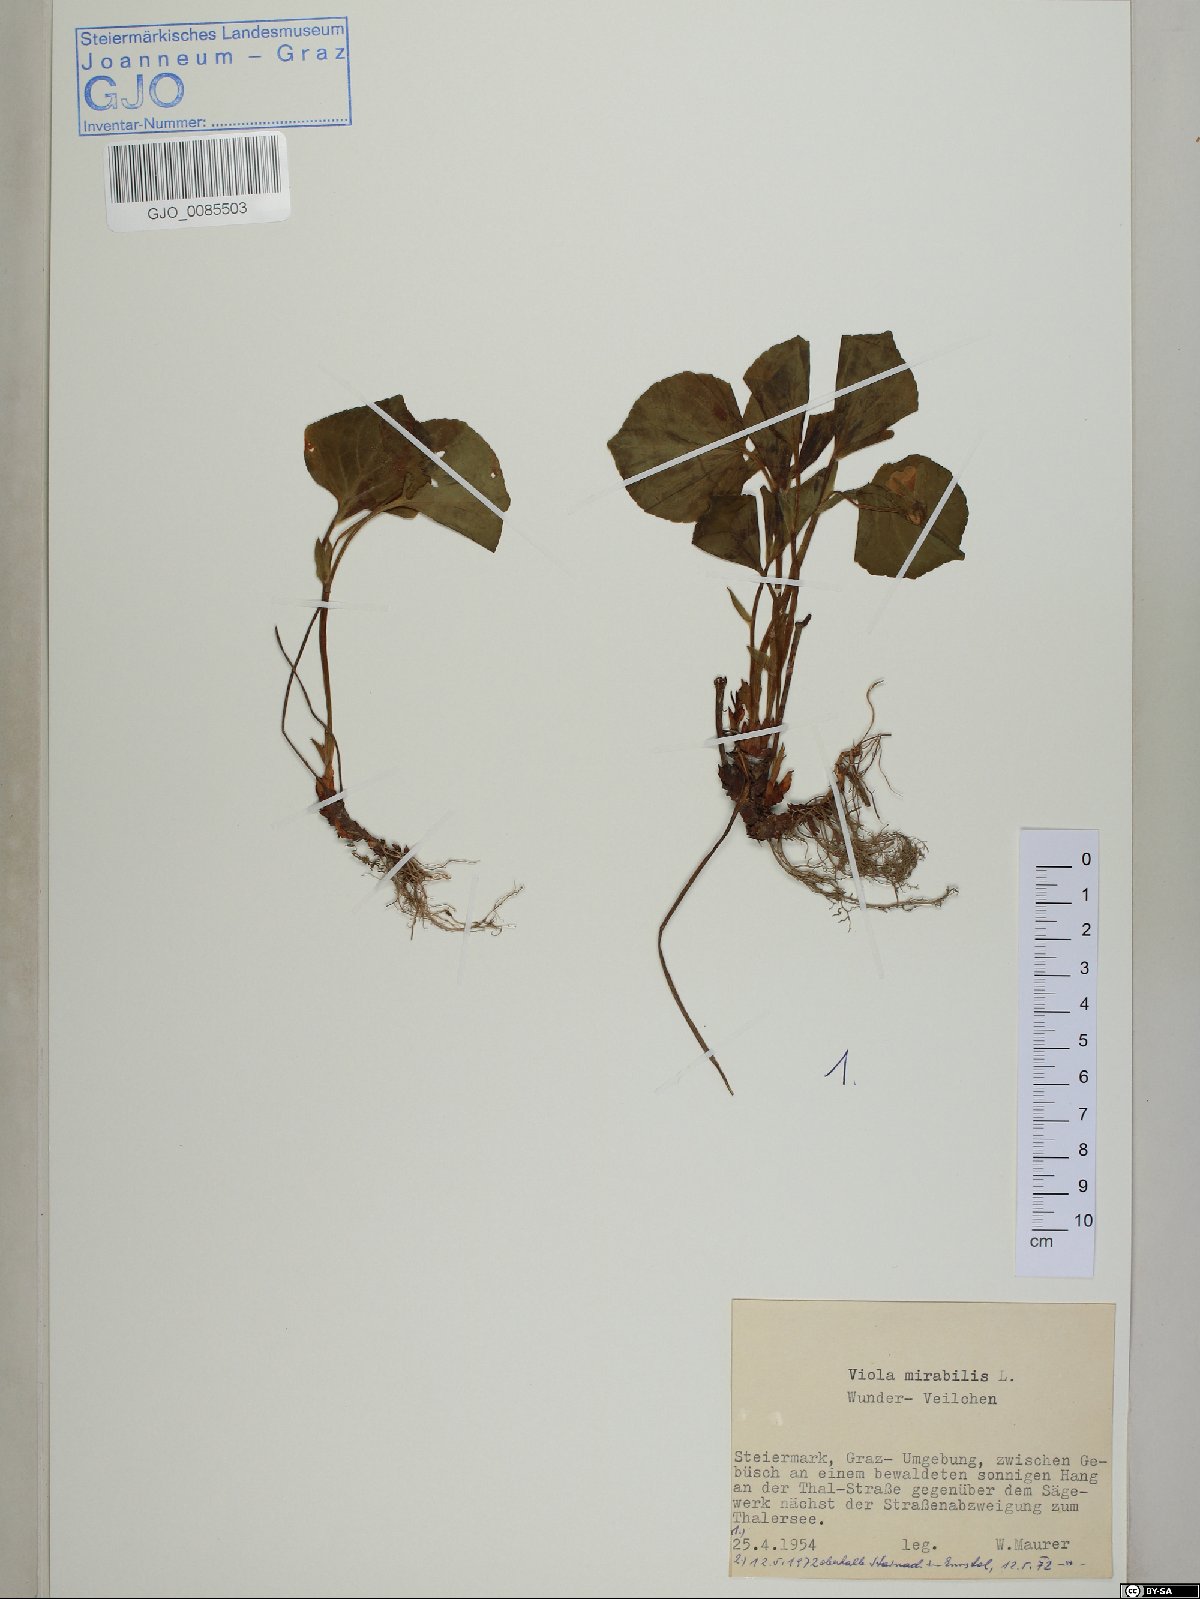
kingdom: Plantae
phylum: Tracheophyta
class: Magnoliopsida
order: Malpighiales
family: Violaceae
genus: Viola
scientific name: Viola mirabilis
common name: Wonder violet
